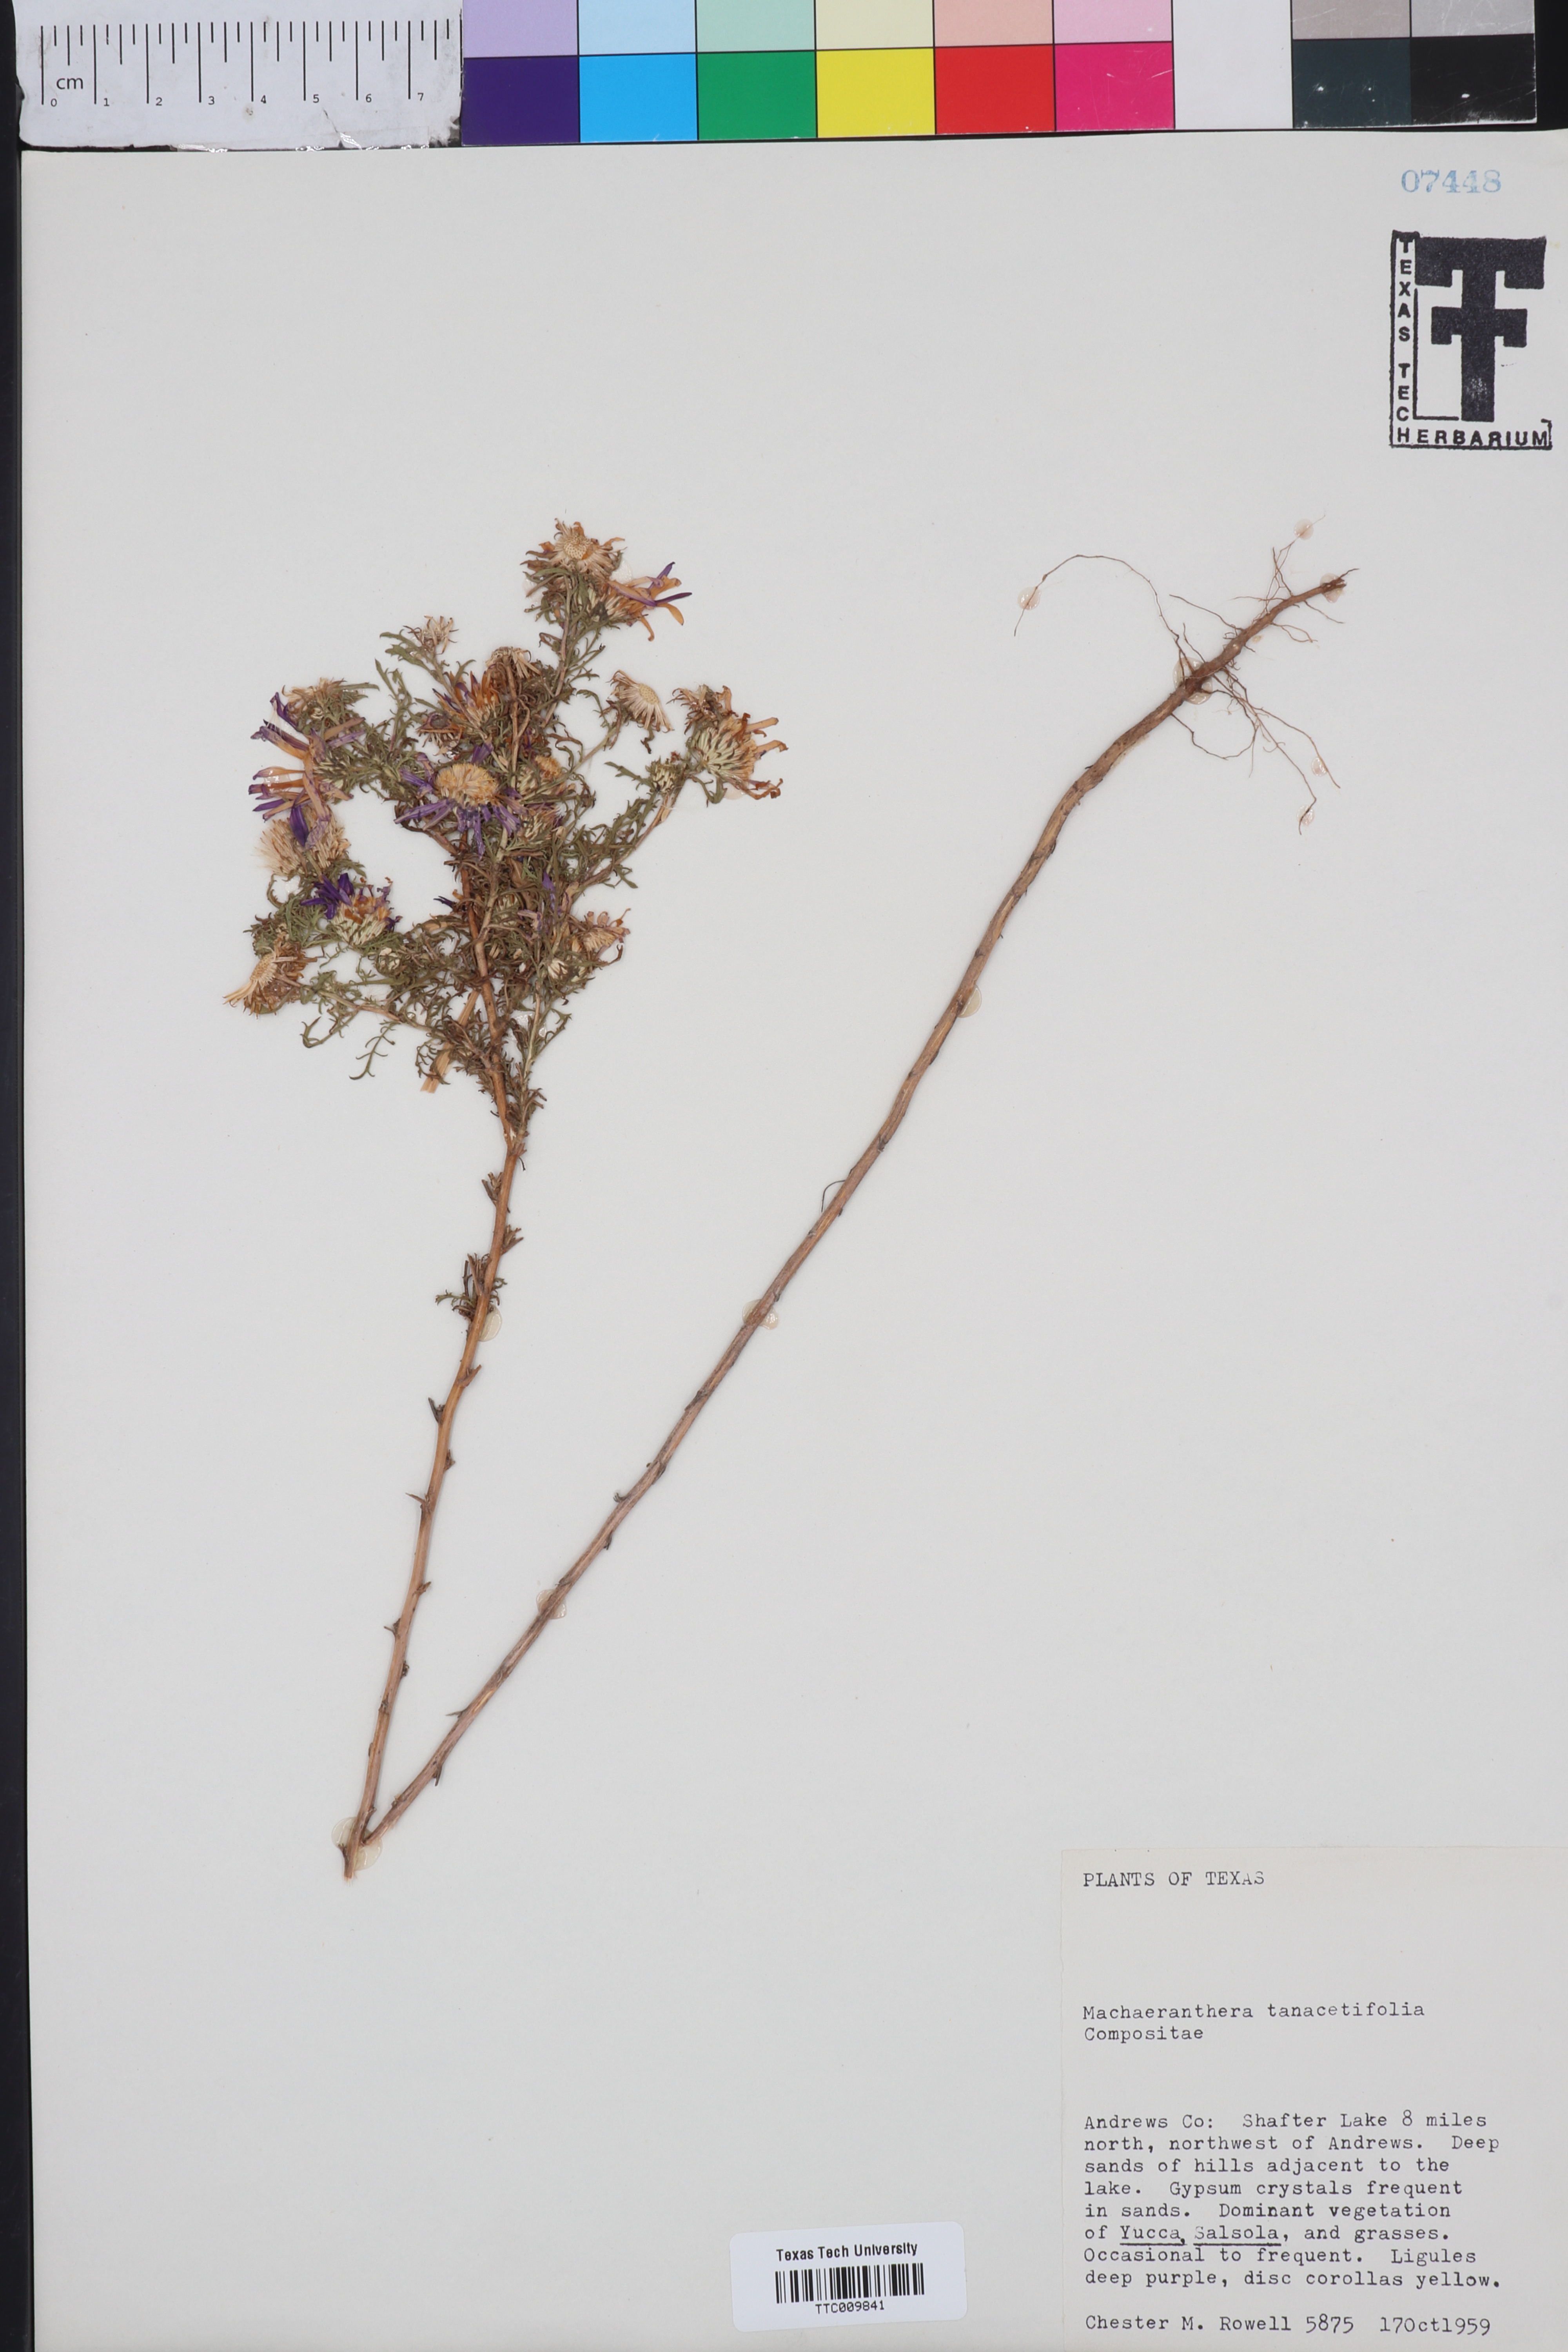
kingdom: Plantae
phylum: Tracheophyta
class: Magnoliopsida
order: Asterales
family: Asteraceae
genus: Machaeranthera
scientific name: Machaeranthera tanacetifolia
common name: Tansy-aster
